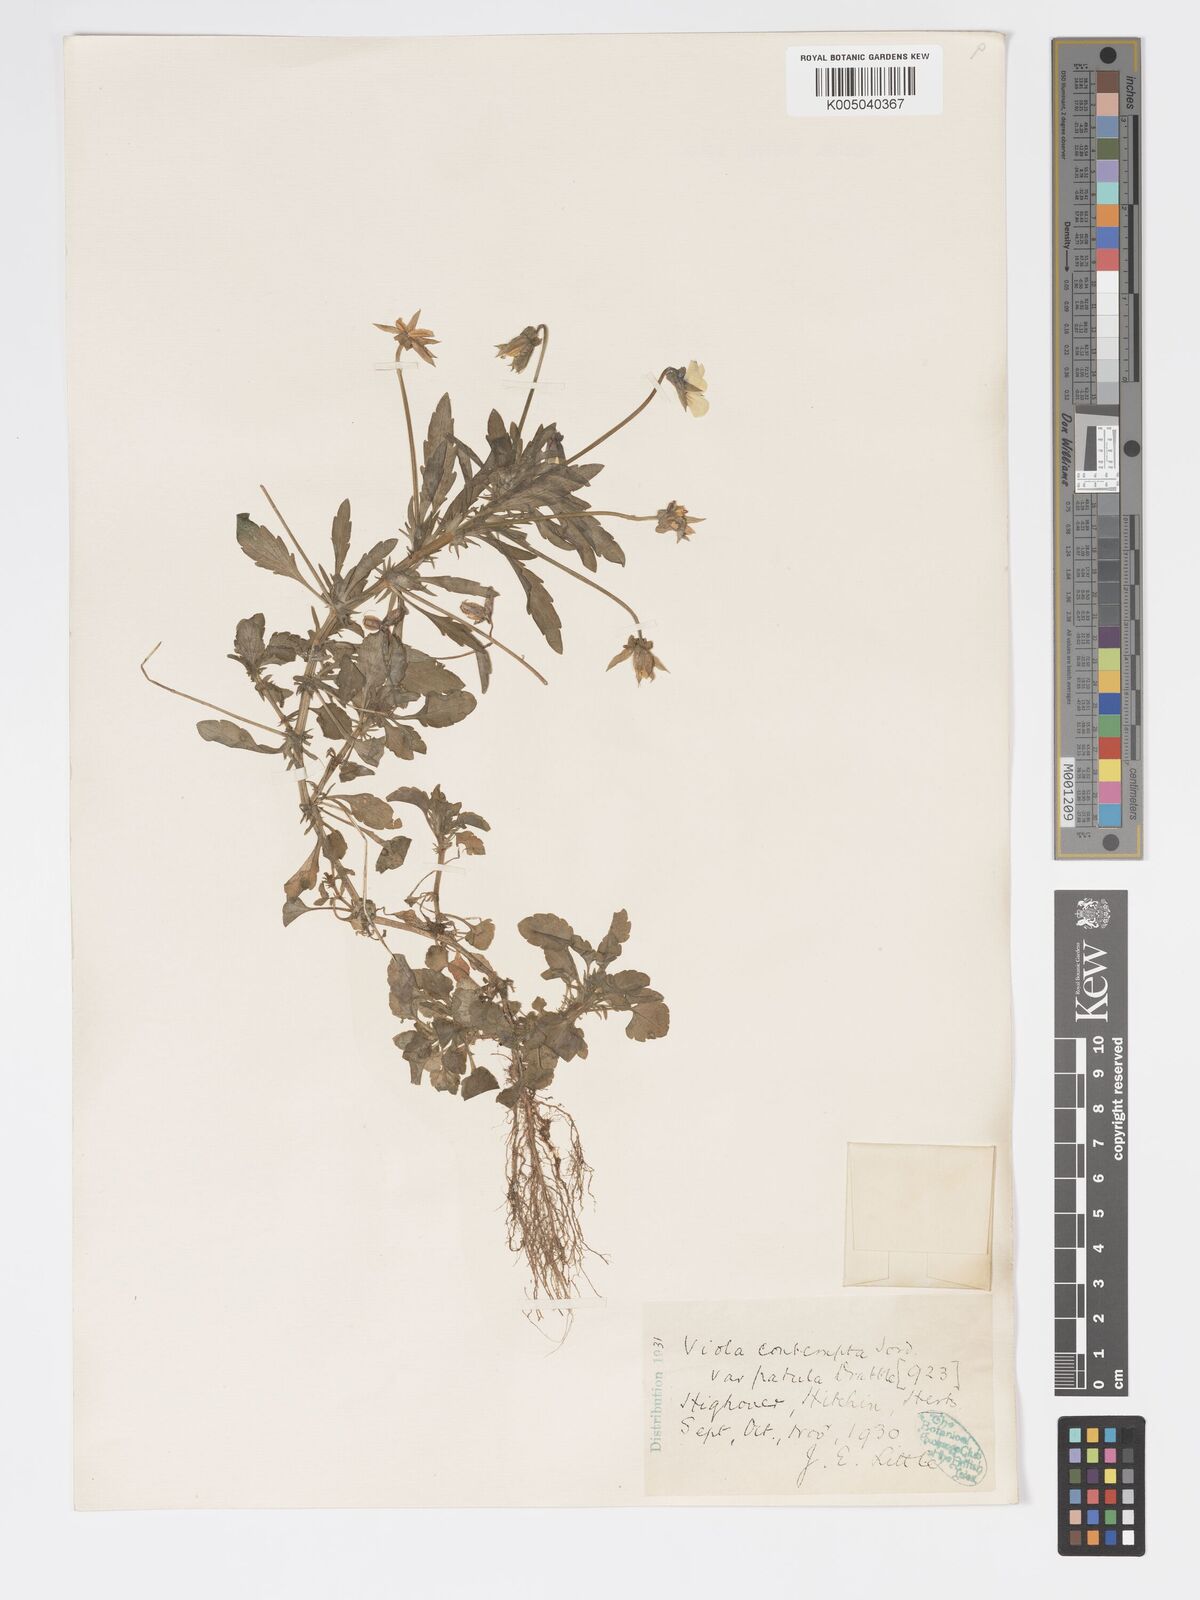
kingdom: Plantae
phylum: Tracheophyta
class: Magnoliopsida
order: Malpighiales
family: Violaceae
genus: Viola
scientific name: Viola arvensis
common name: Field pansy
